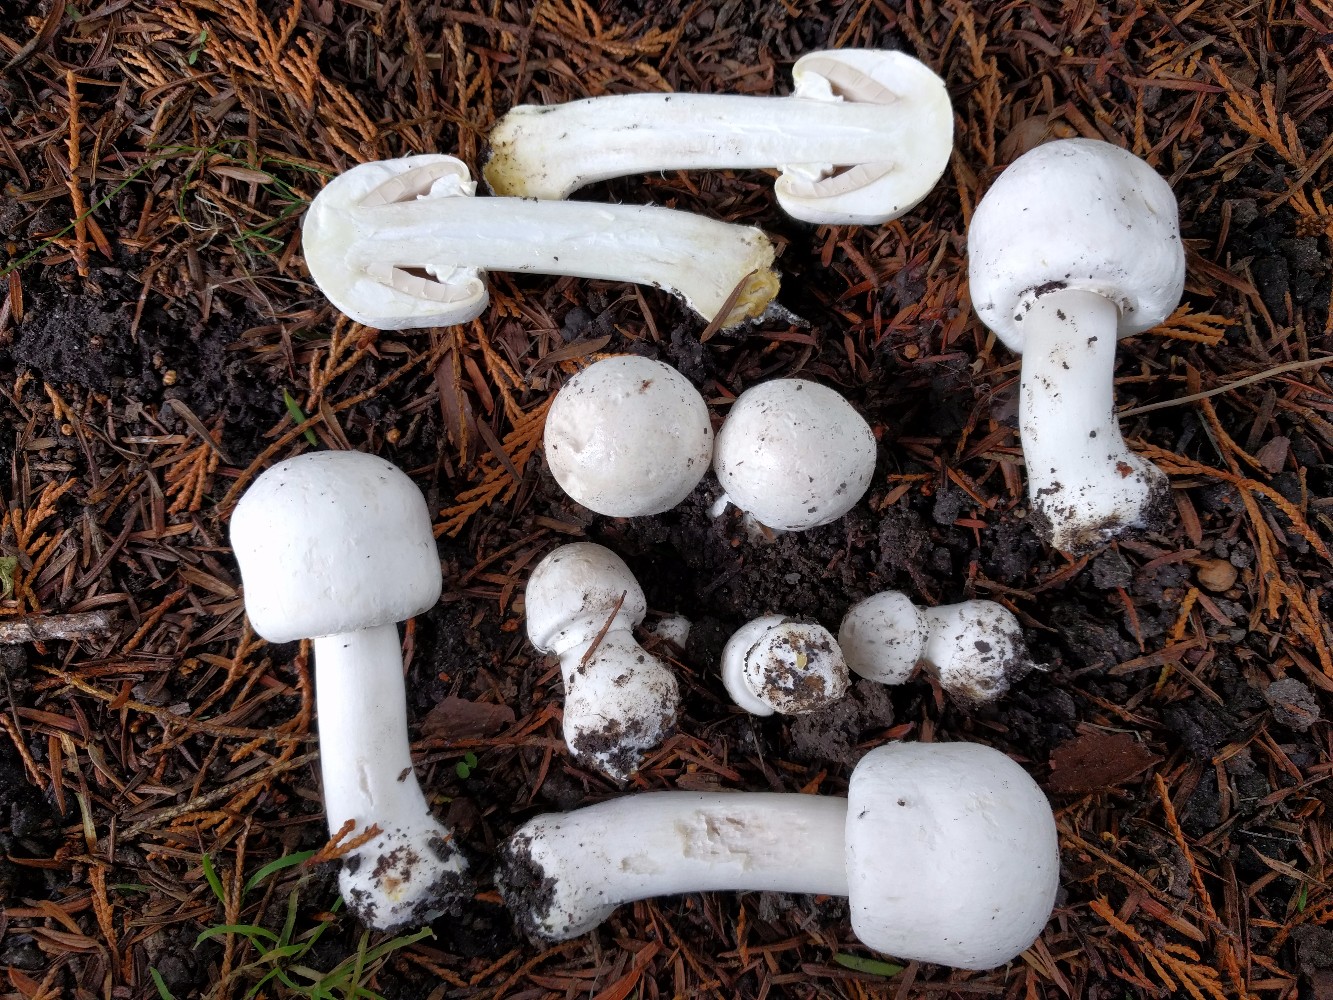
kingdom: Fungi
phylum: Basidiomycota
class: Agaricomycetes
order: Agaricales
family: Agaricaceae
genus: Agaricus
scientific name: Agaricus xanthodermus
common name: karbol-champignon
